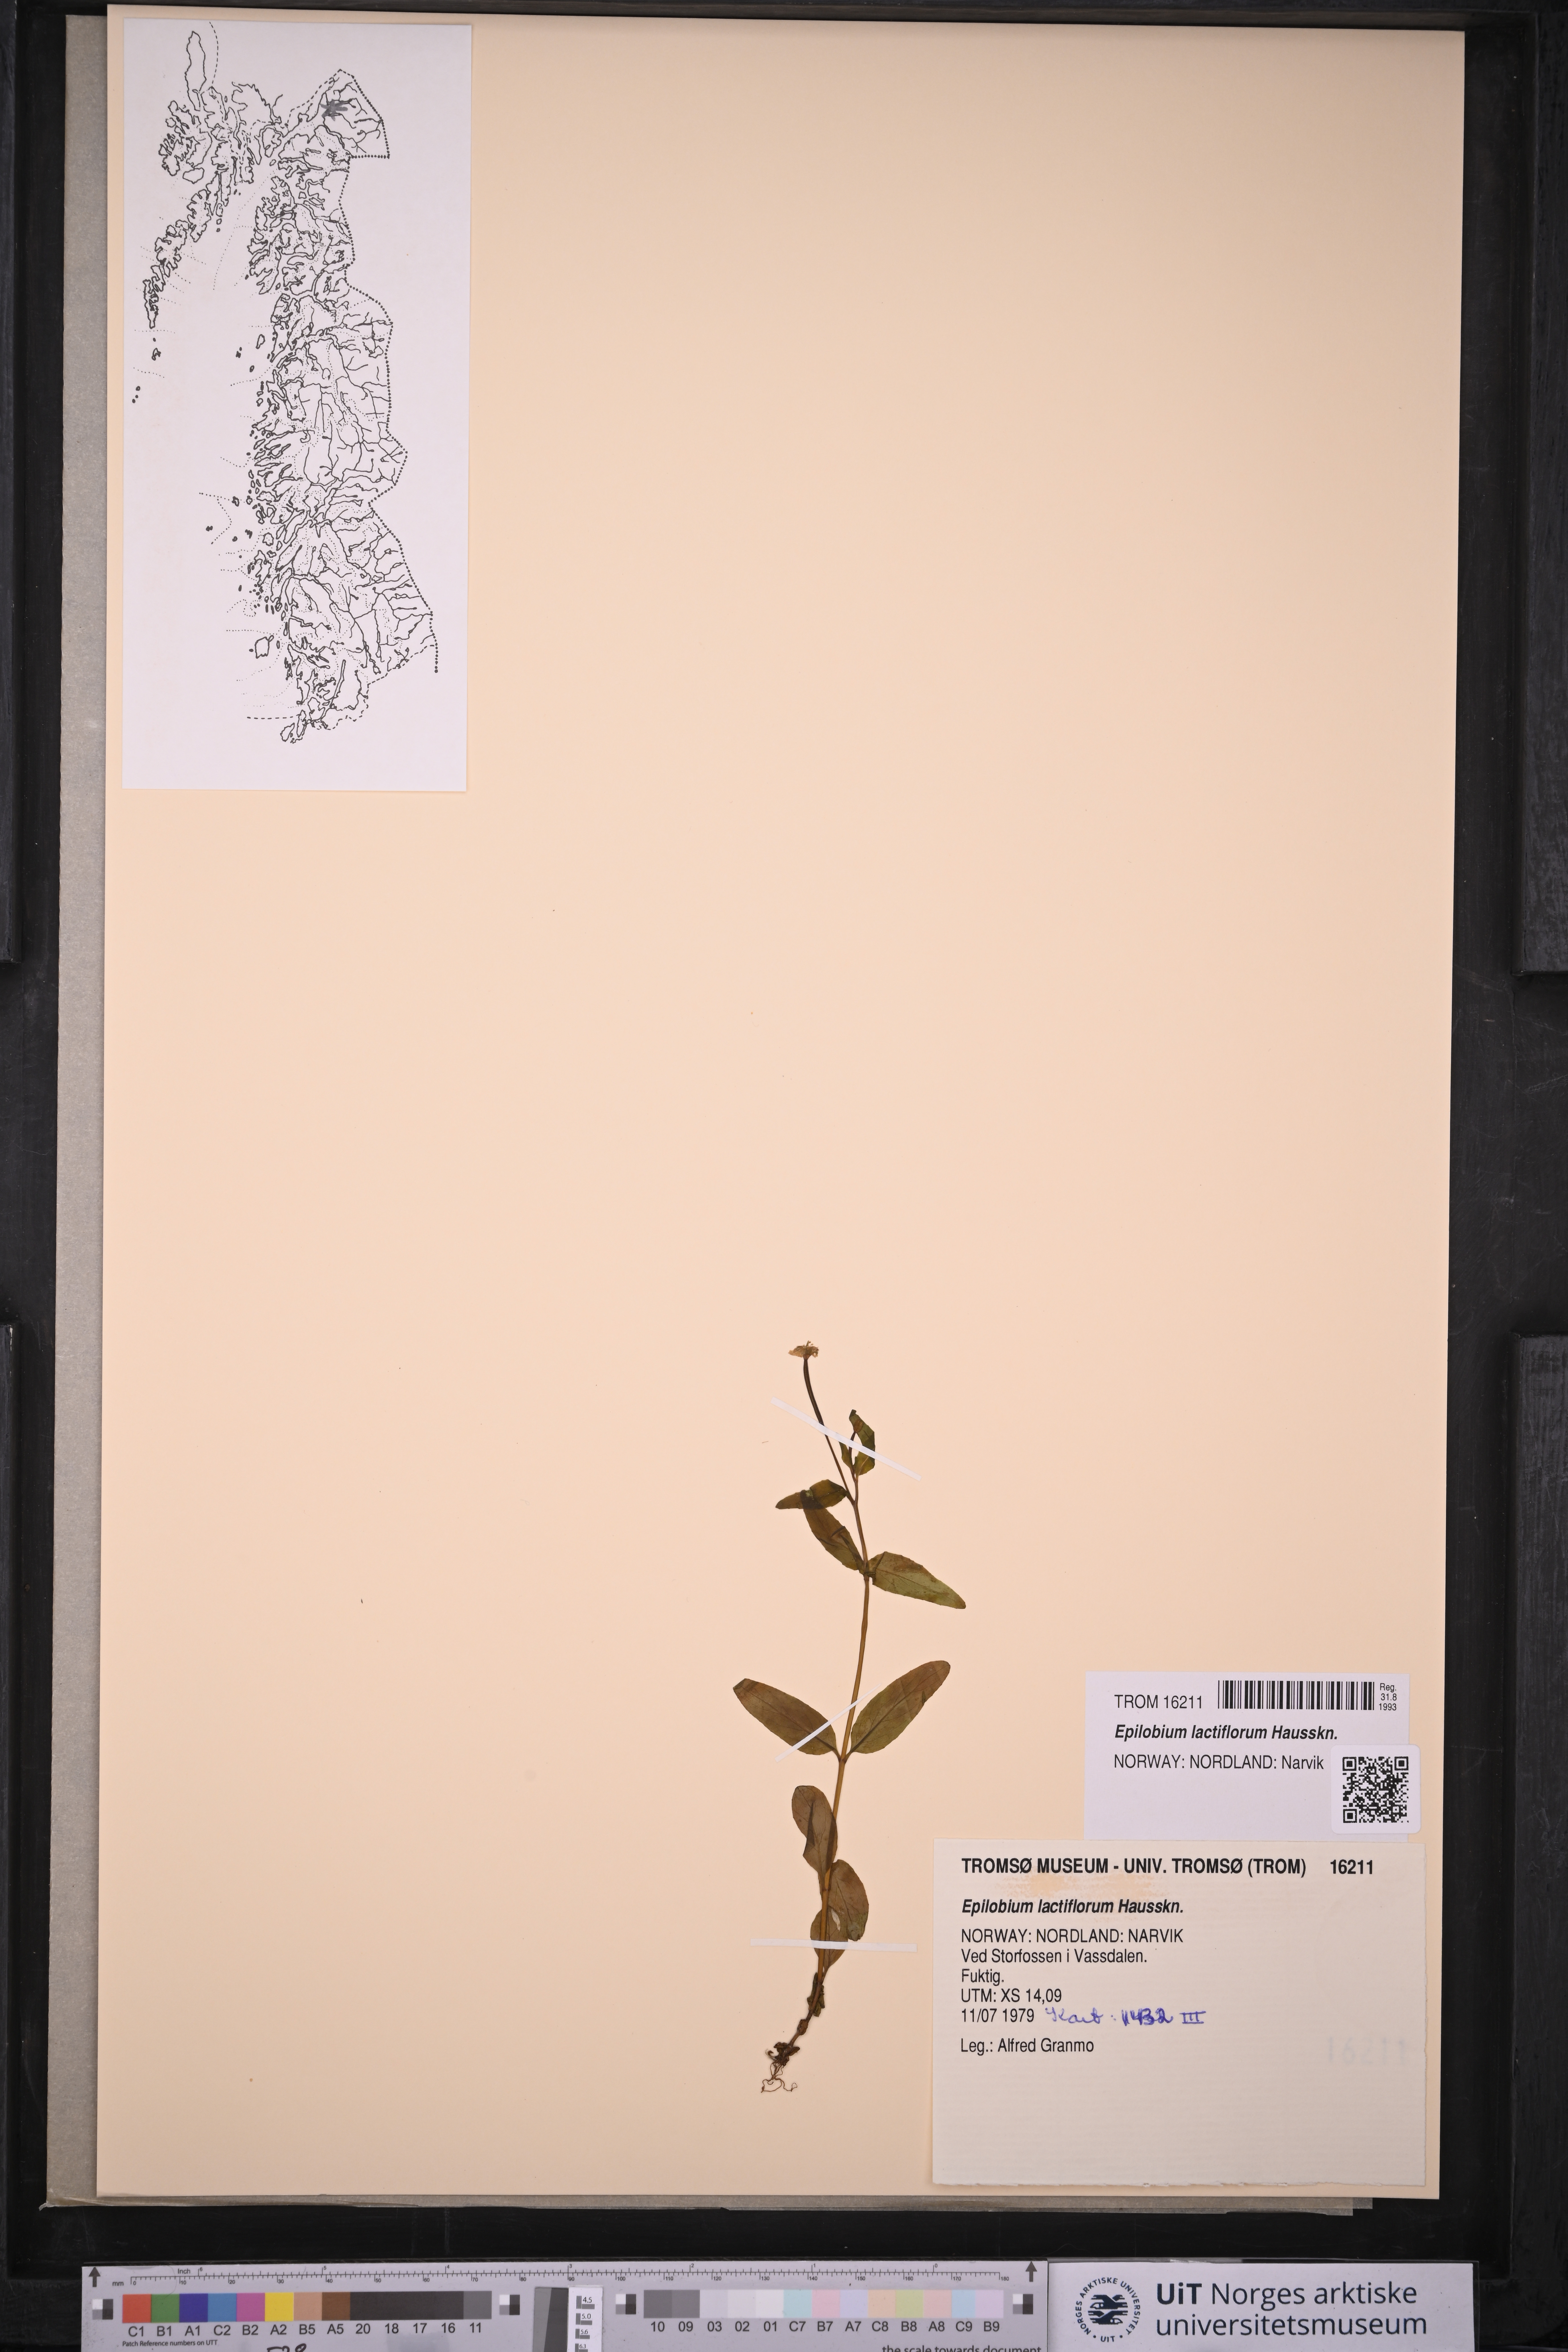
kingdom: Plantae
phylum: Tracheophyta
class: Magnoliopsida
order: Myrtales
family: Onagraceae
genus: Epilobium
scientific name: Epilobium lactiflorum
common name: Milkflower willowherb
